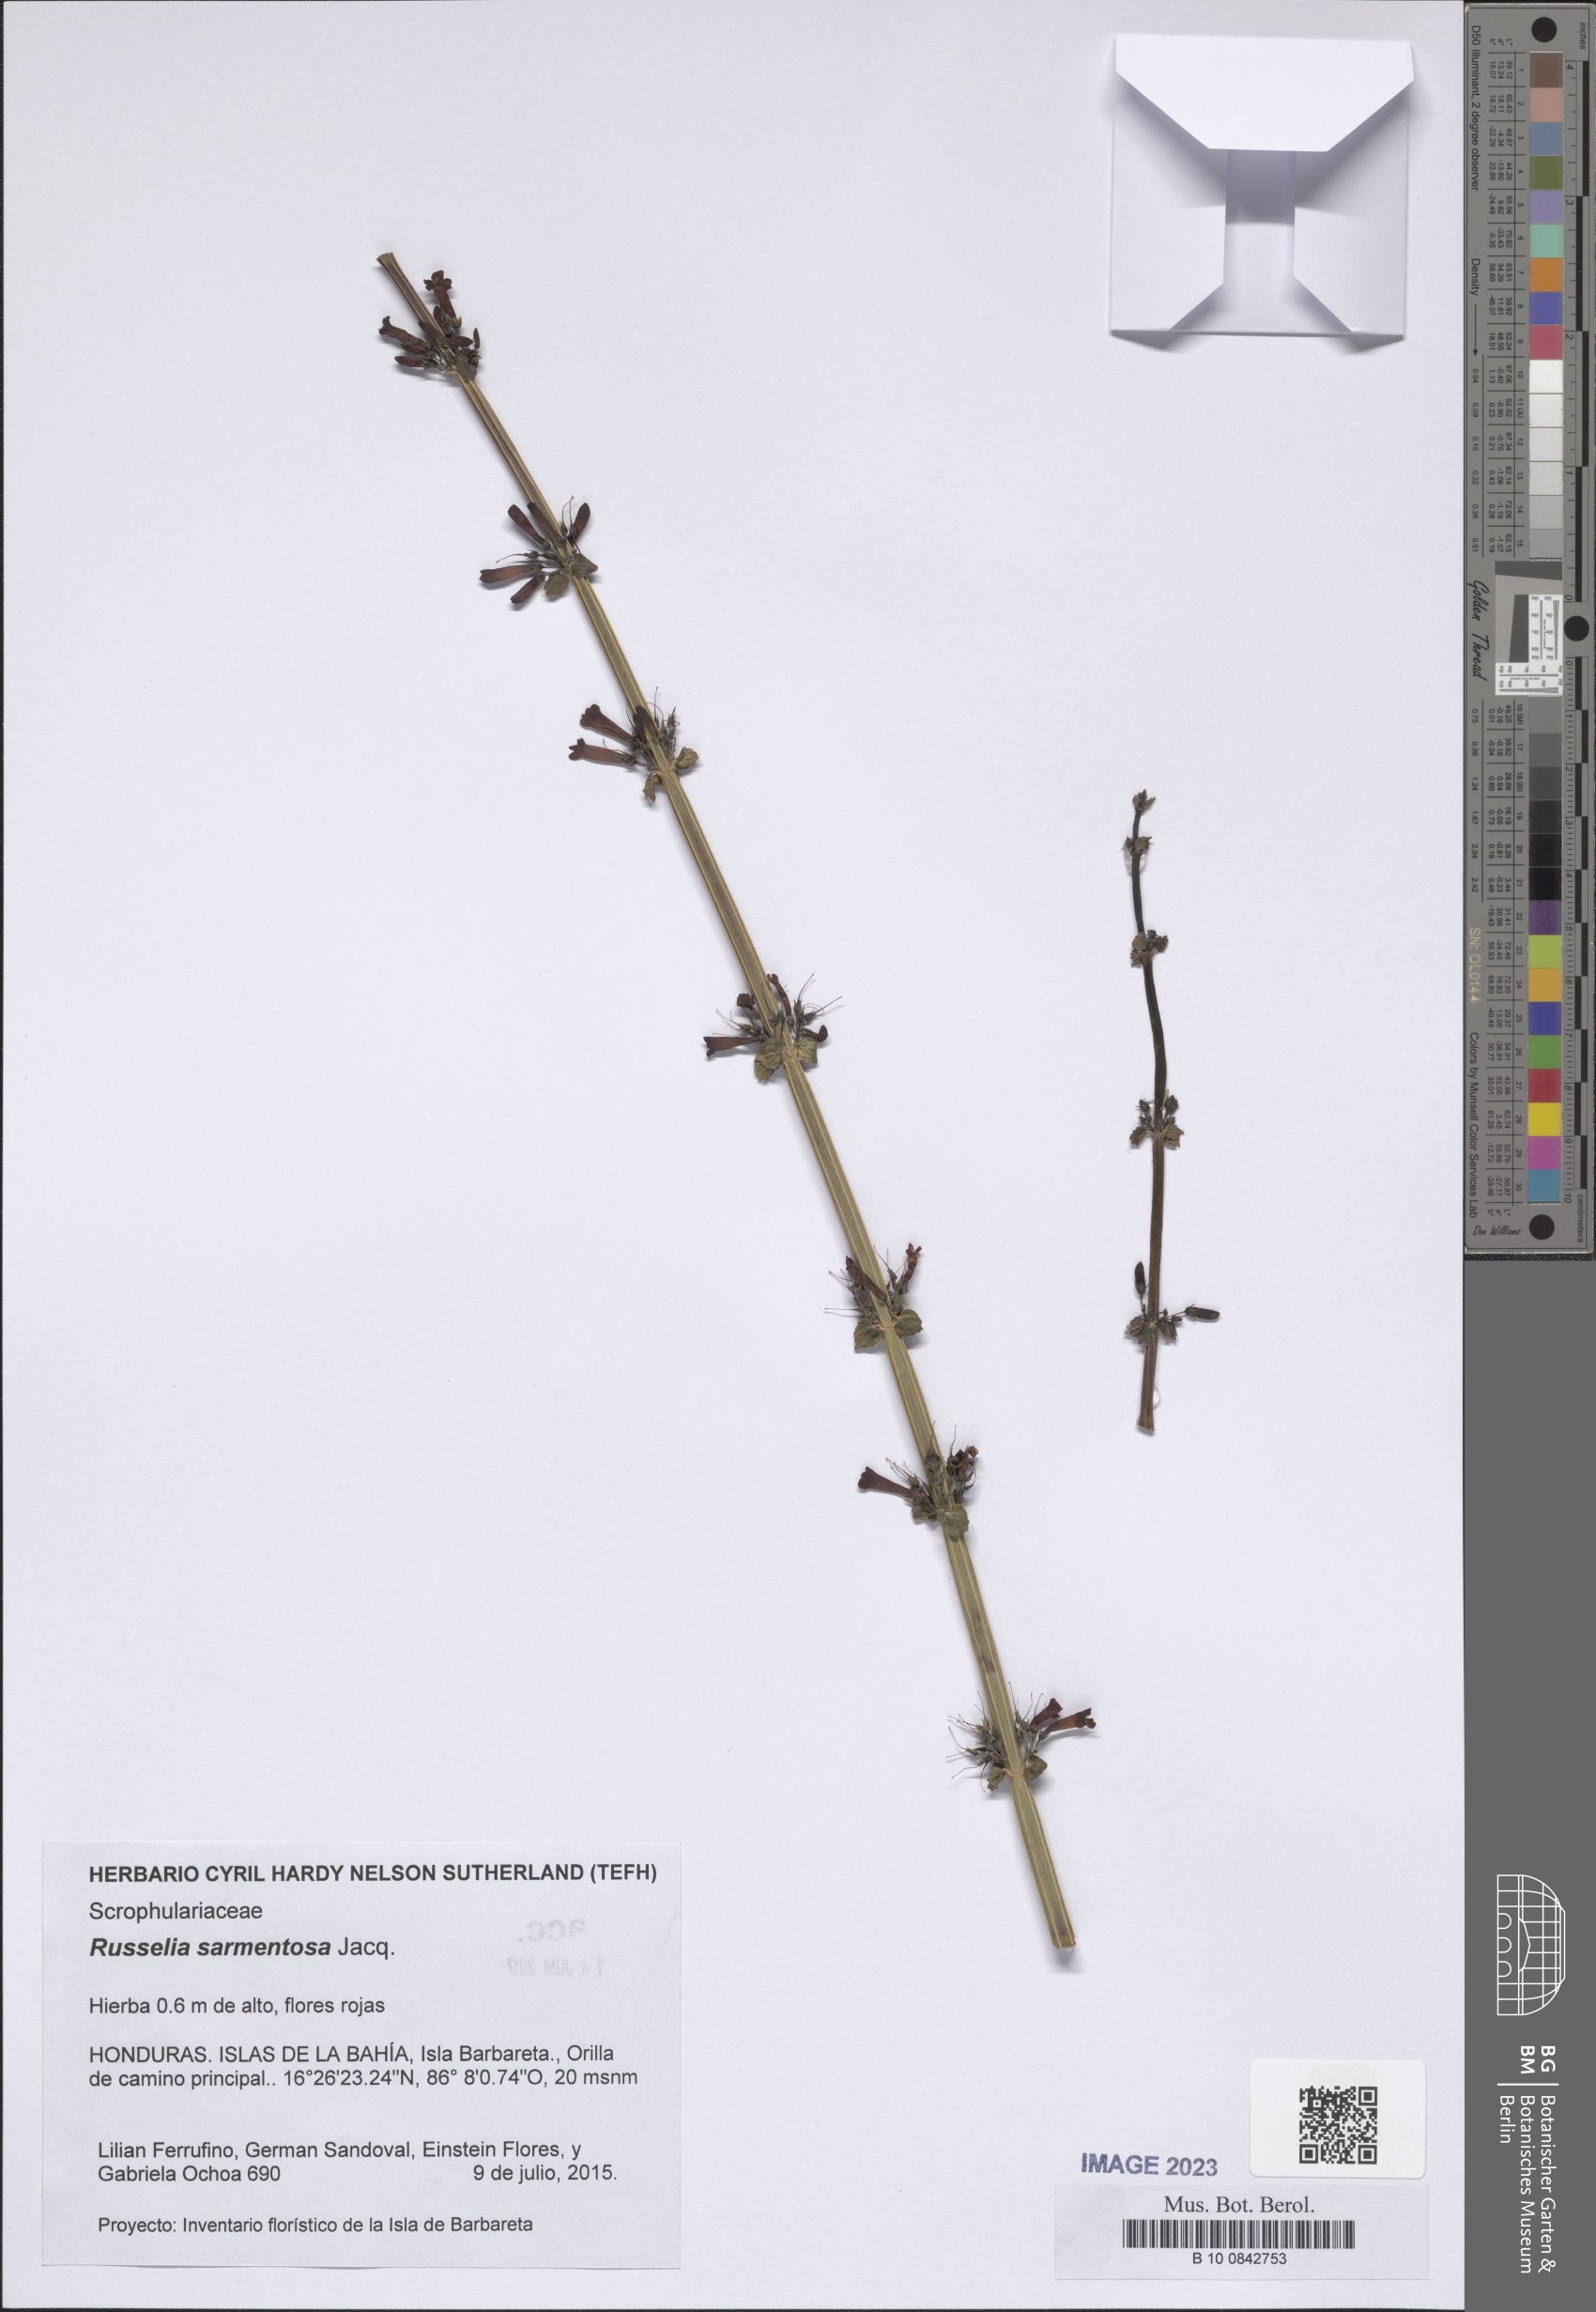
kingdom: Plantae
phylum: Tracheophyta
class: Magnoliopsida
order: Lamiales
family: Plantaginaceae
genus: Russelia
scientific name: Russelia sarmentosa
